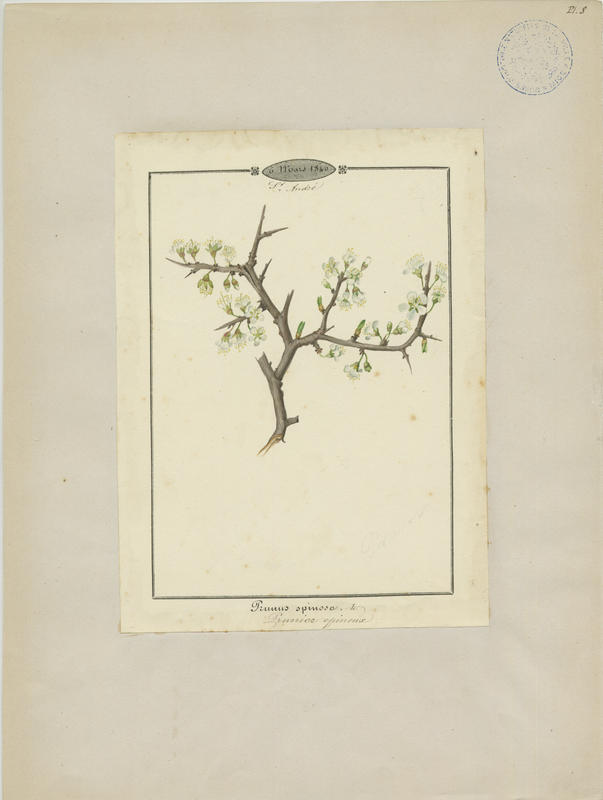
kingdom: Plantae
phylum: Tracheophyta
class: Magnoliopsida
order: Rosales
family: Rosaceae
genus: Prunus
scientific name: Prunus spinosa
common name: Blackthorn
